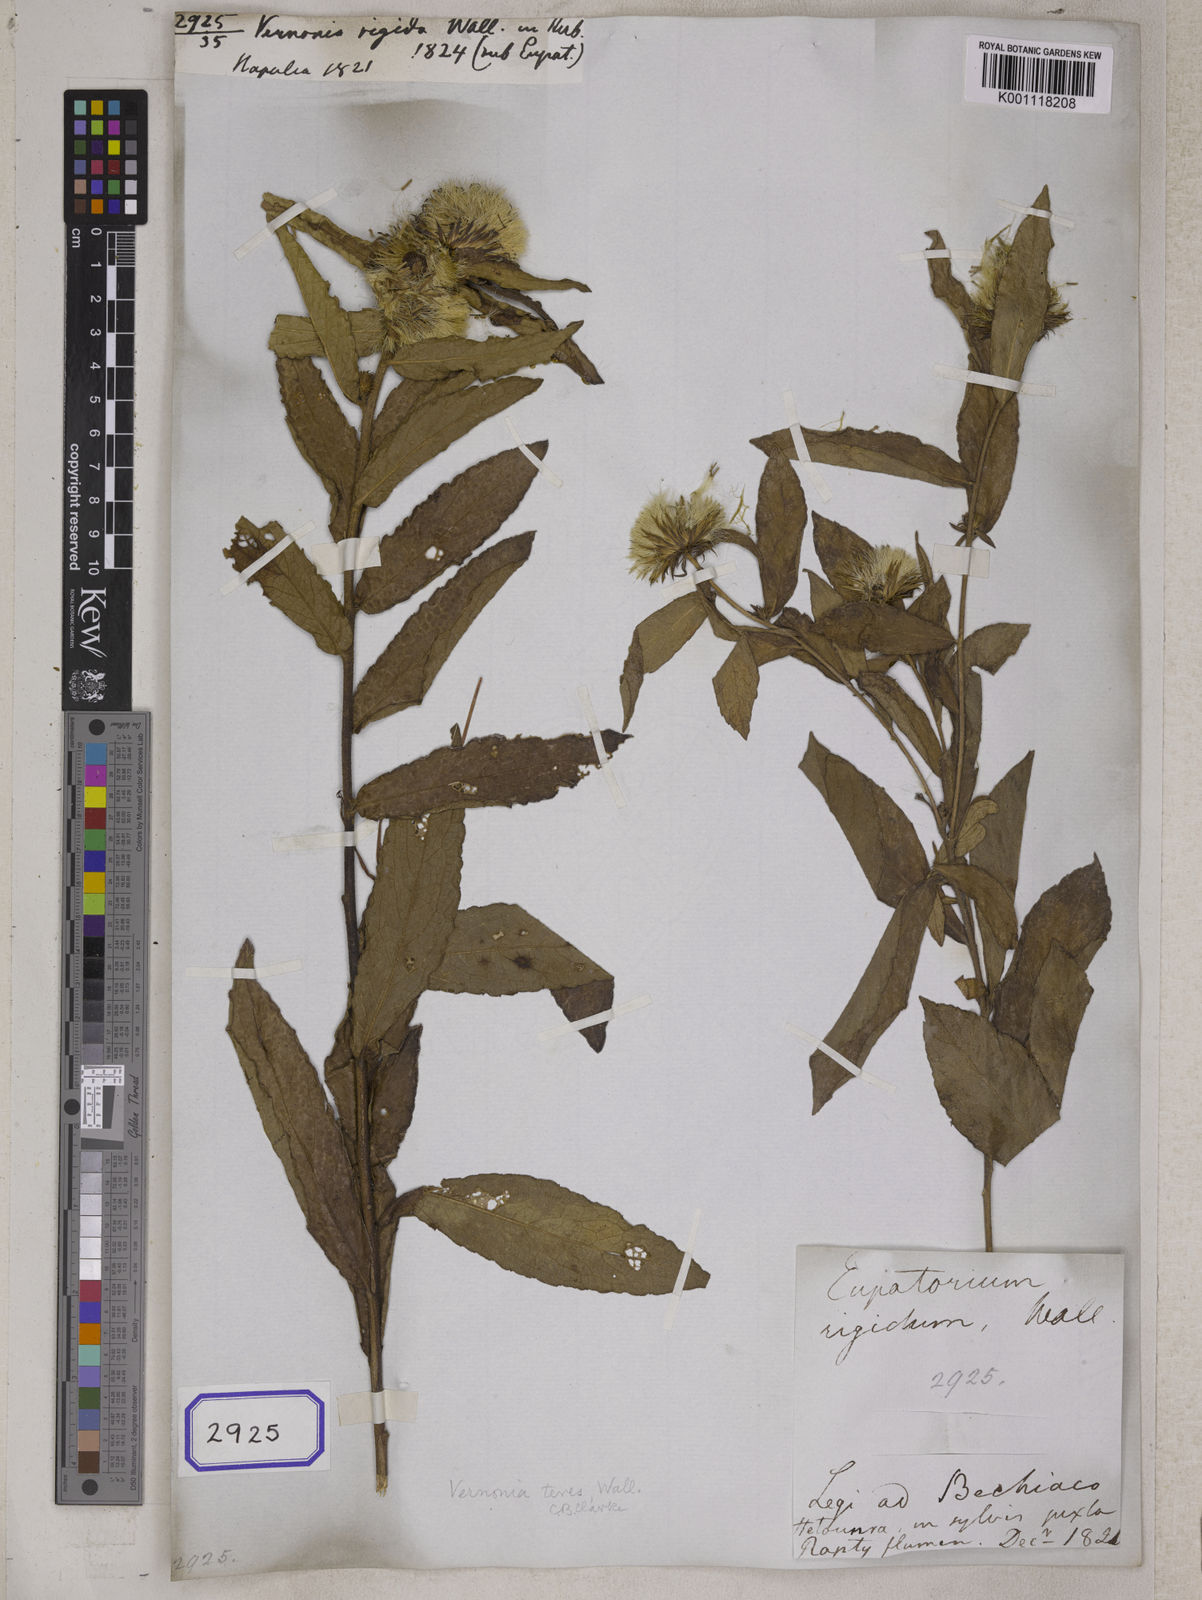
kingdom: Plantae
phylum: Tracheophyta
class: Magnoliopsida
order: Asterales
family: Asteraceae
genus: Acilepis
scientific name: Acilepis squarrosa
